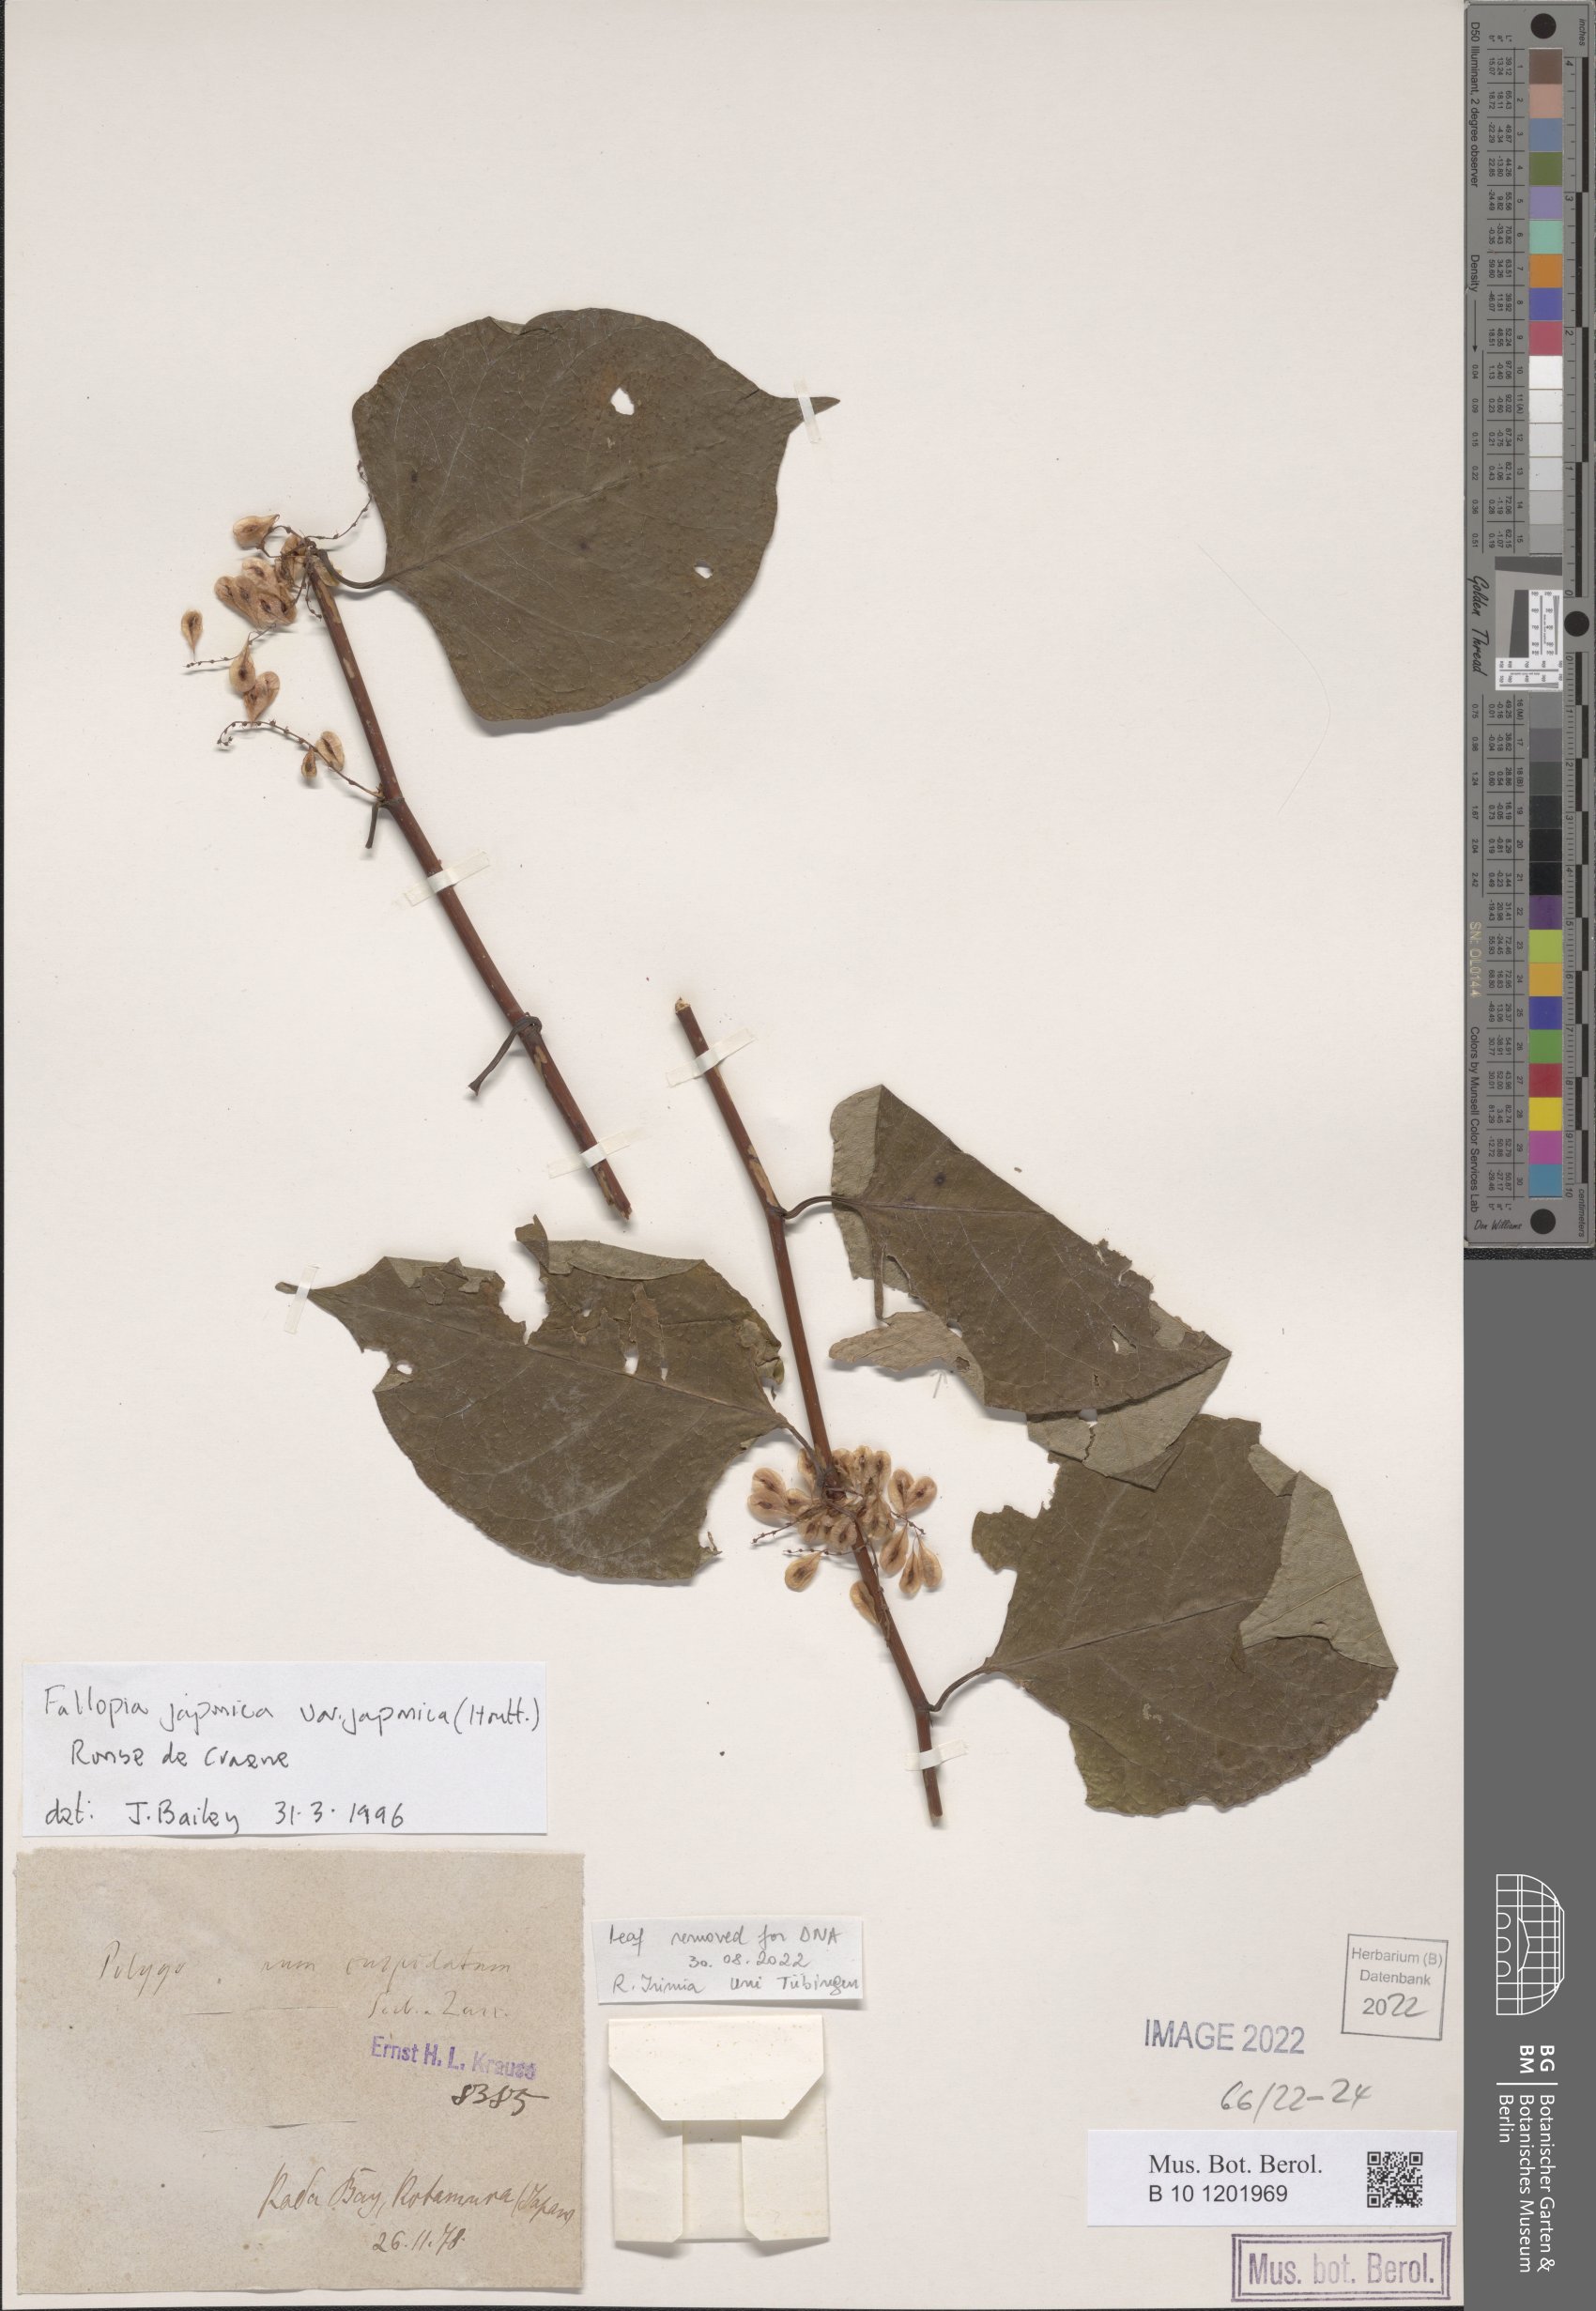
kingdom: Plantae
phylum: Tracheophyta
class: Magnoliopsida
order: Caryophyllales
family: Polygonaceae
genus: Reynoutria
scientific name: Reynoutria japonica
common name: Japanese knotweed
